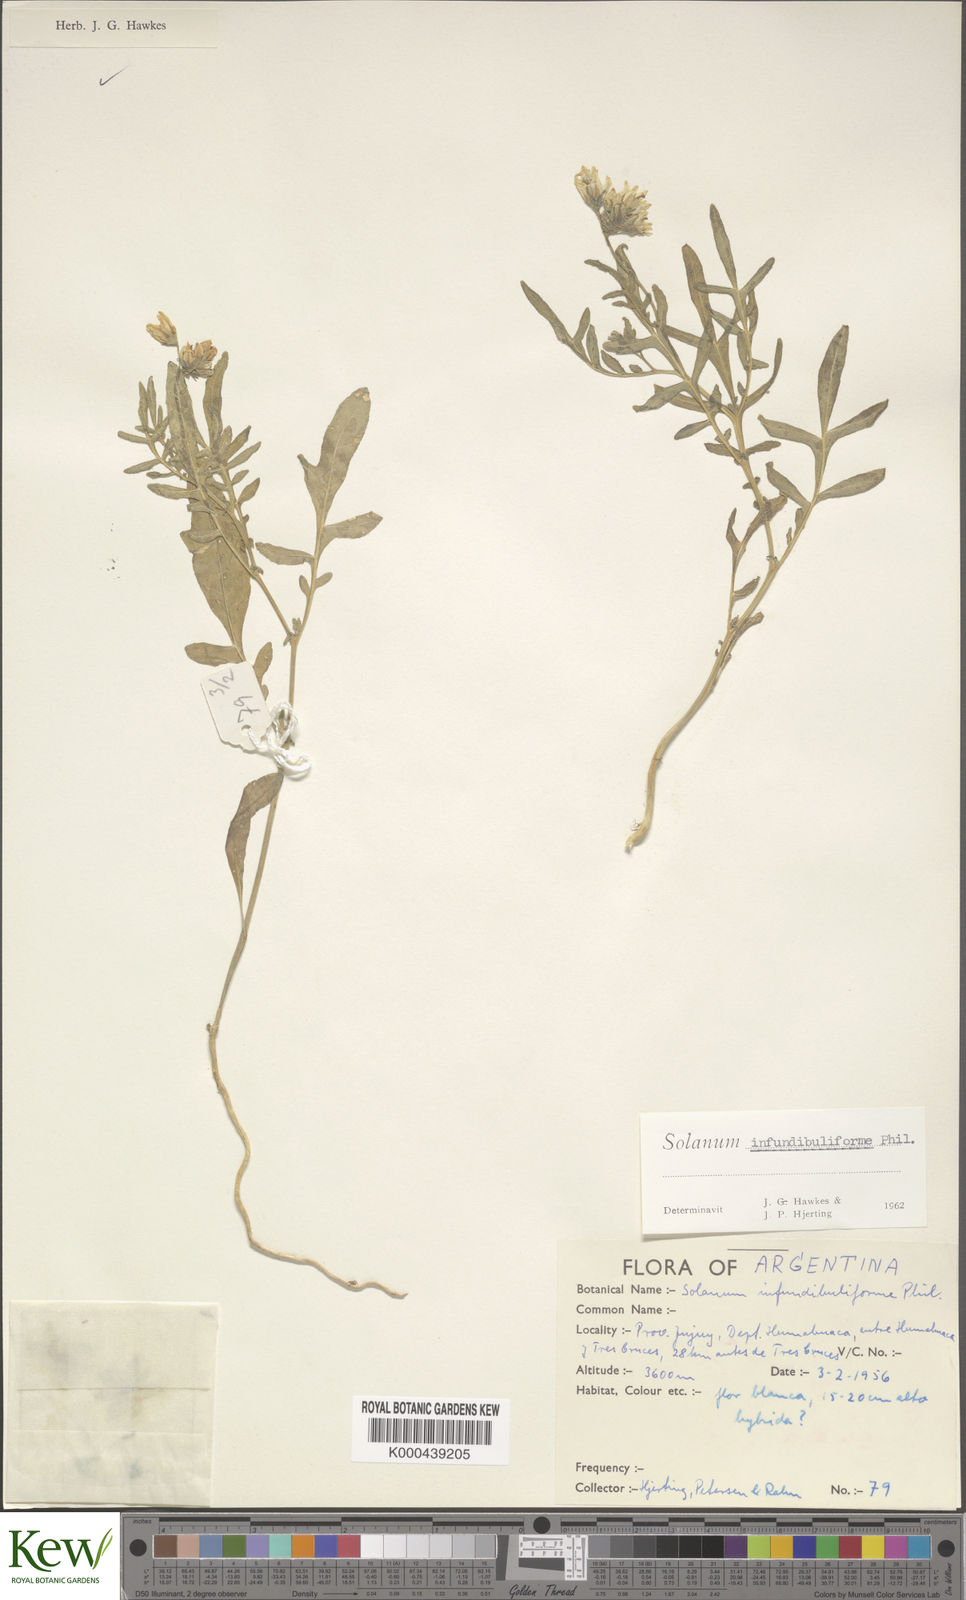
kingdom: Plantae
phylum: Tracheophyta
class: Magnoliopsida
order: Solanales
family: Solanaceae
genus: Solanum
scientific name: Solanum infundibuliforme
